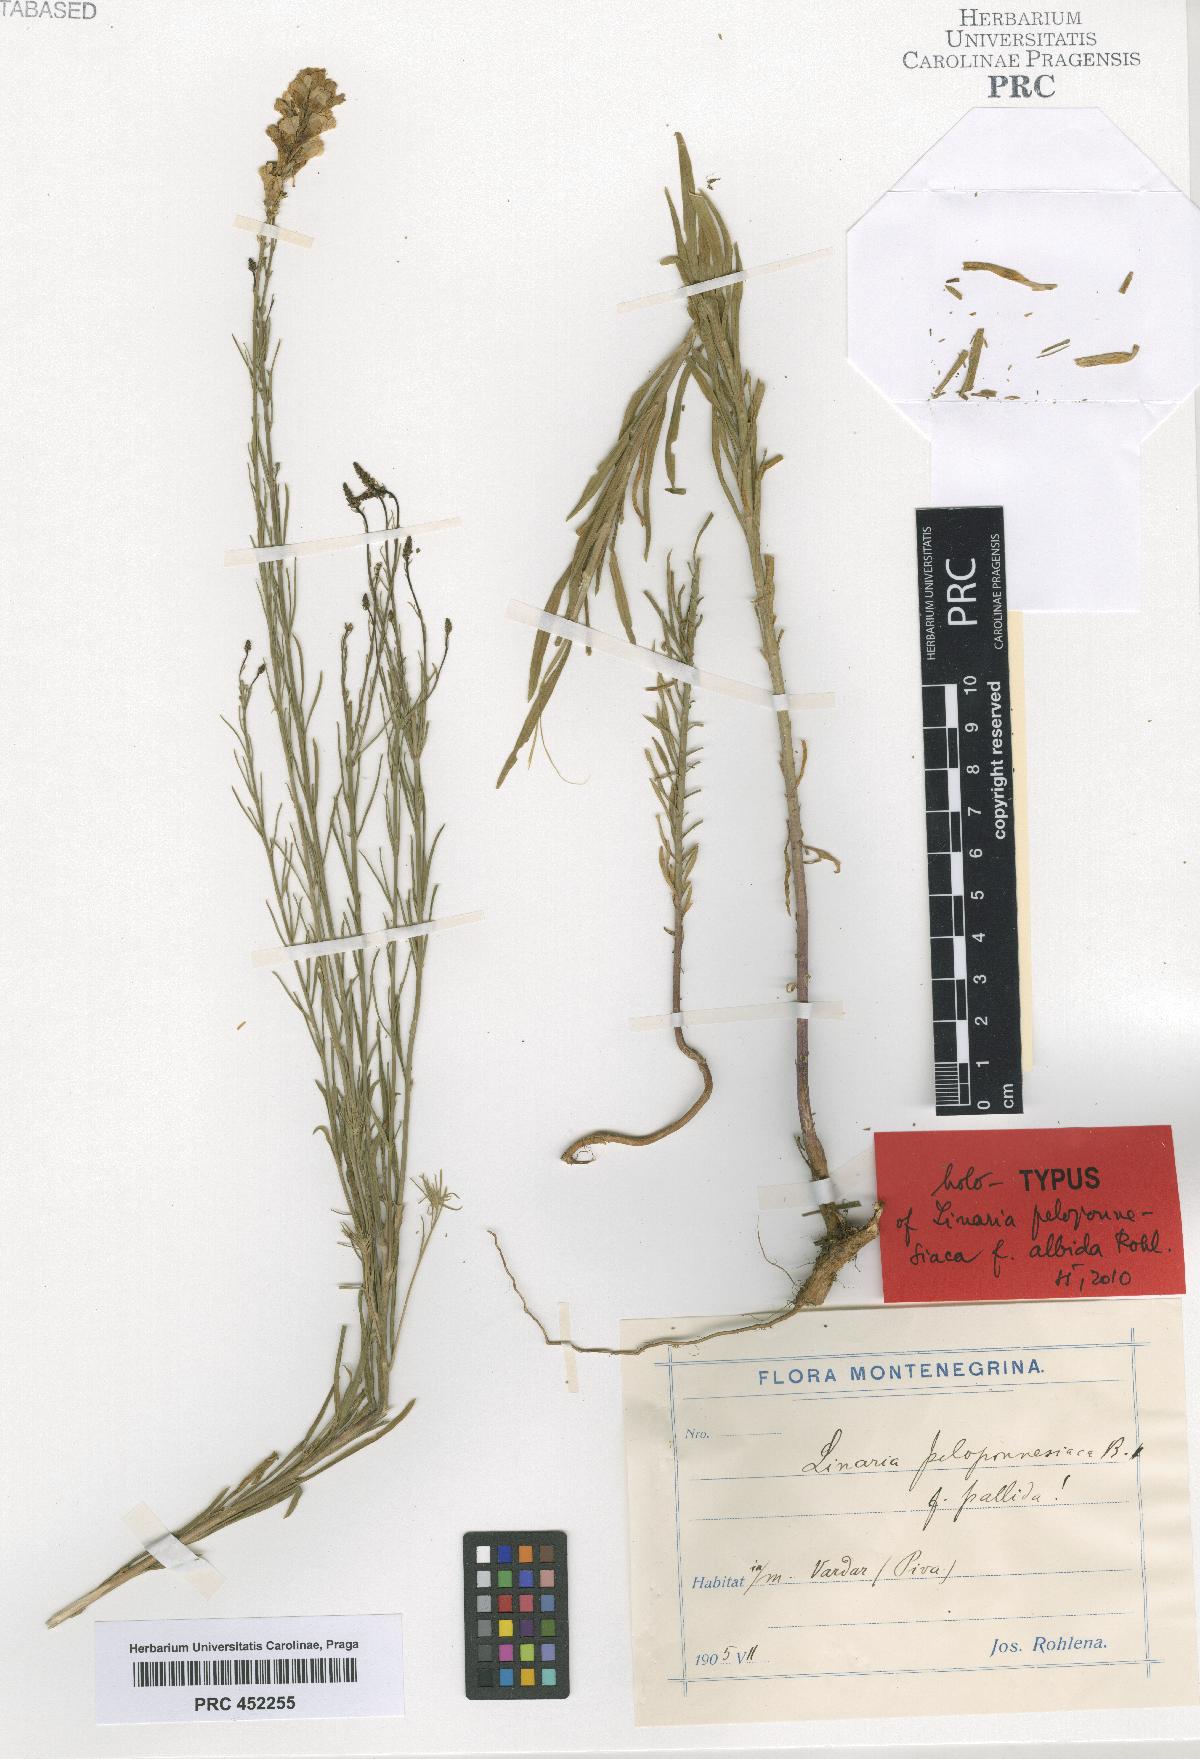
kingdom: Plantae
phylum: Tracheophyta
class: Magnoliopsida
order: Lamiales
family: Plantaginaceae
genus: Linaria
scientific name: Linaria peloponnesiaca
